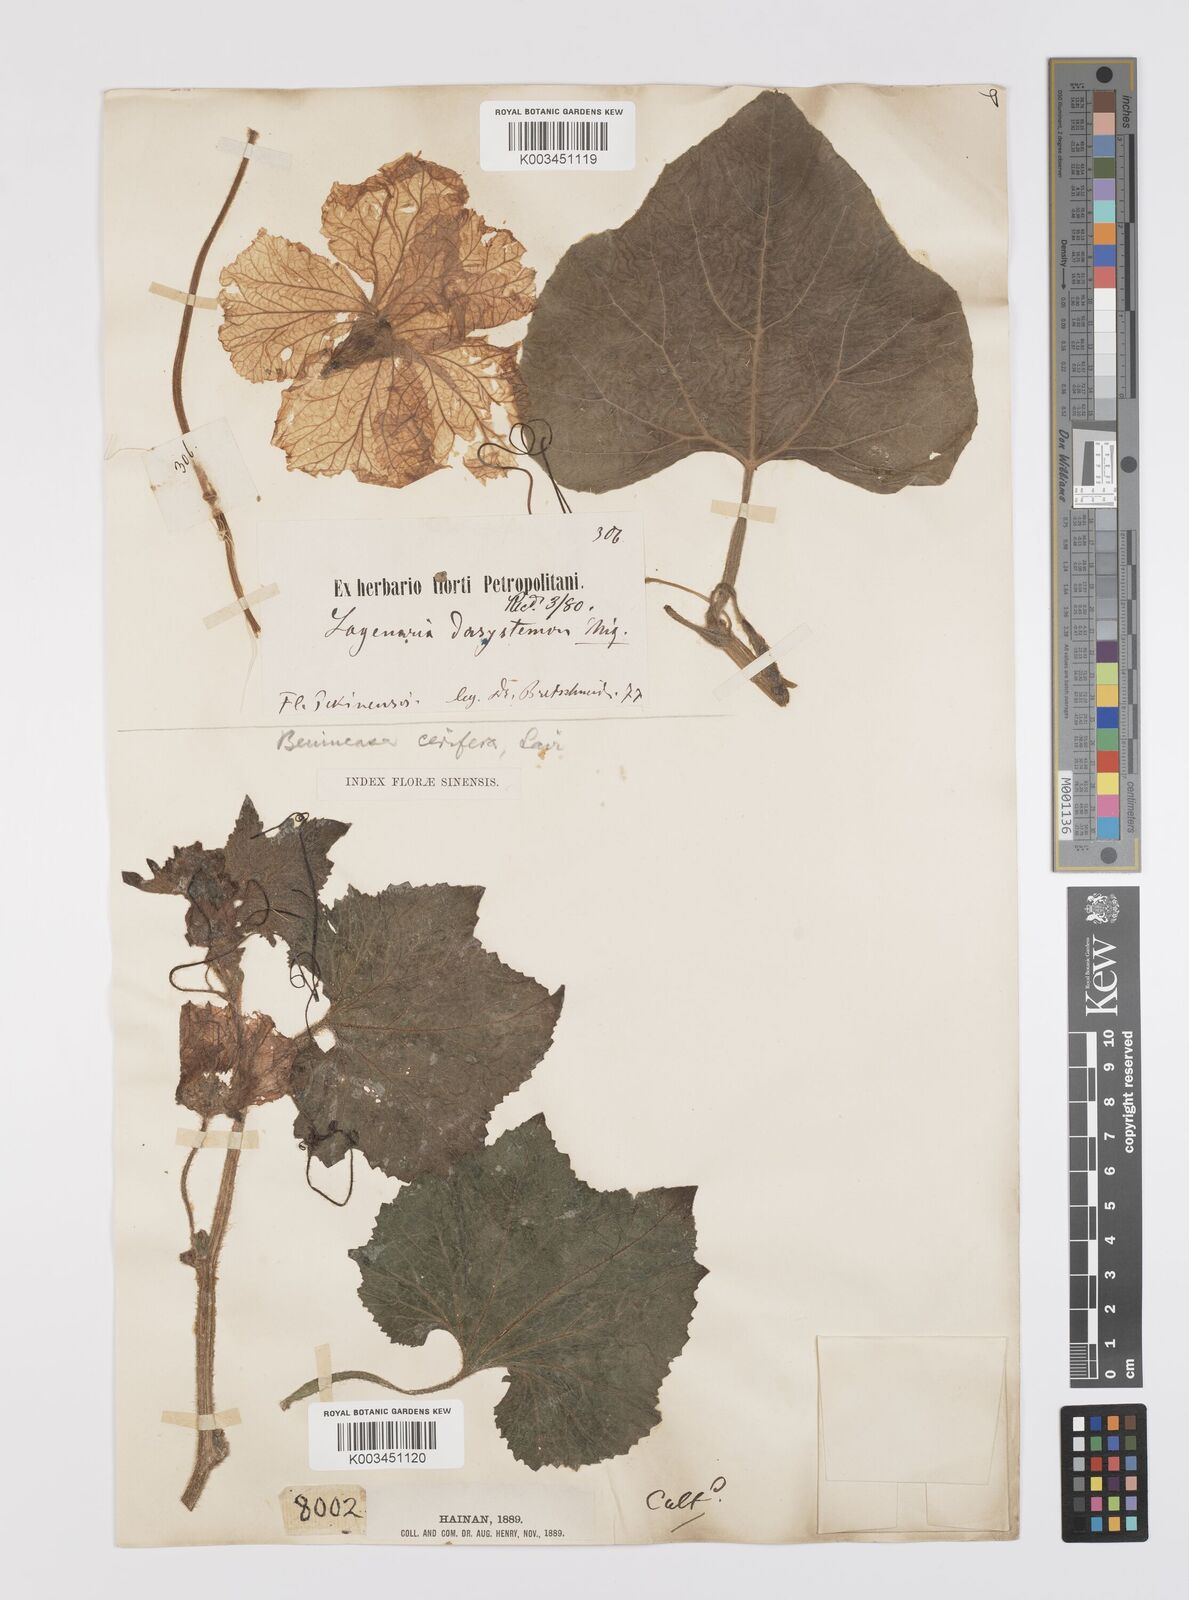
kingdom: Plantae
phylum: Tracheophyta
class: Magnoliopsida
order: Cucurbitales
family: Cucurbitaceae
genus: Lagenaria
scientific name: Lagenaria
